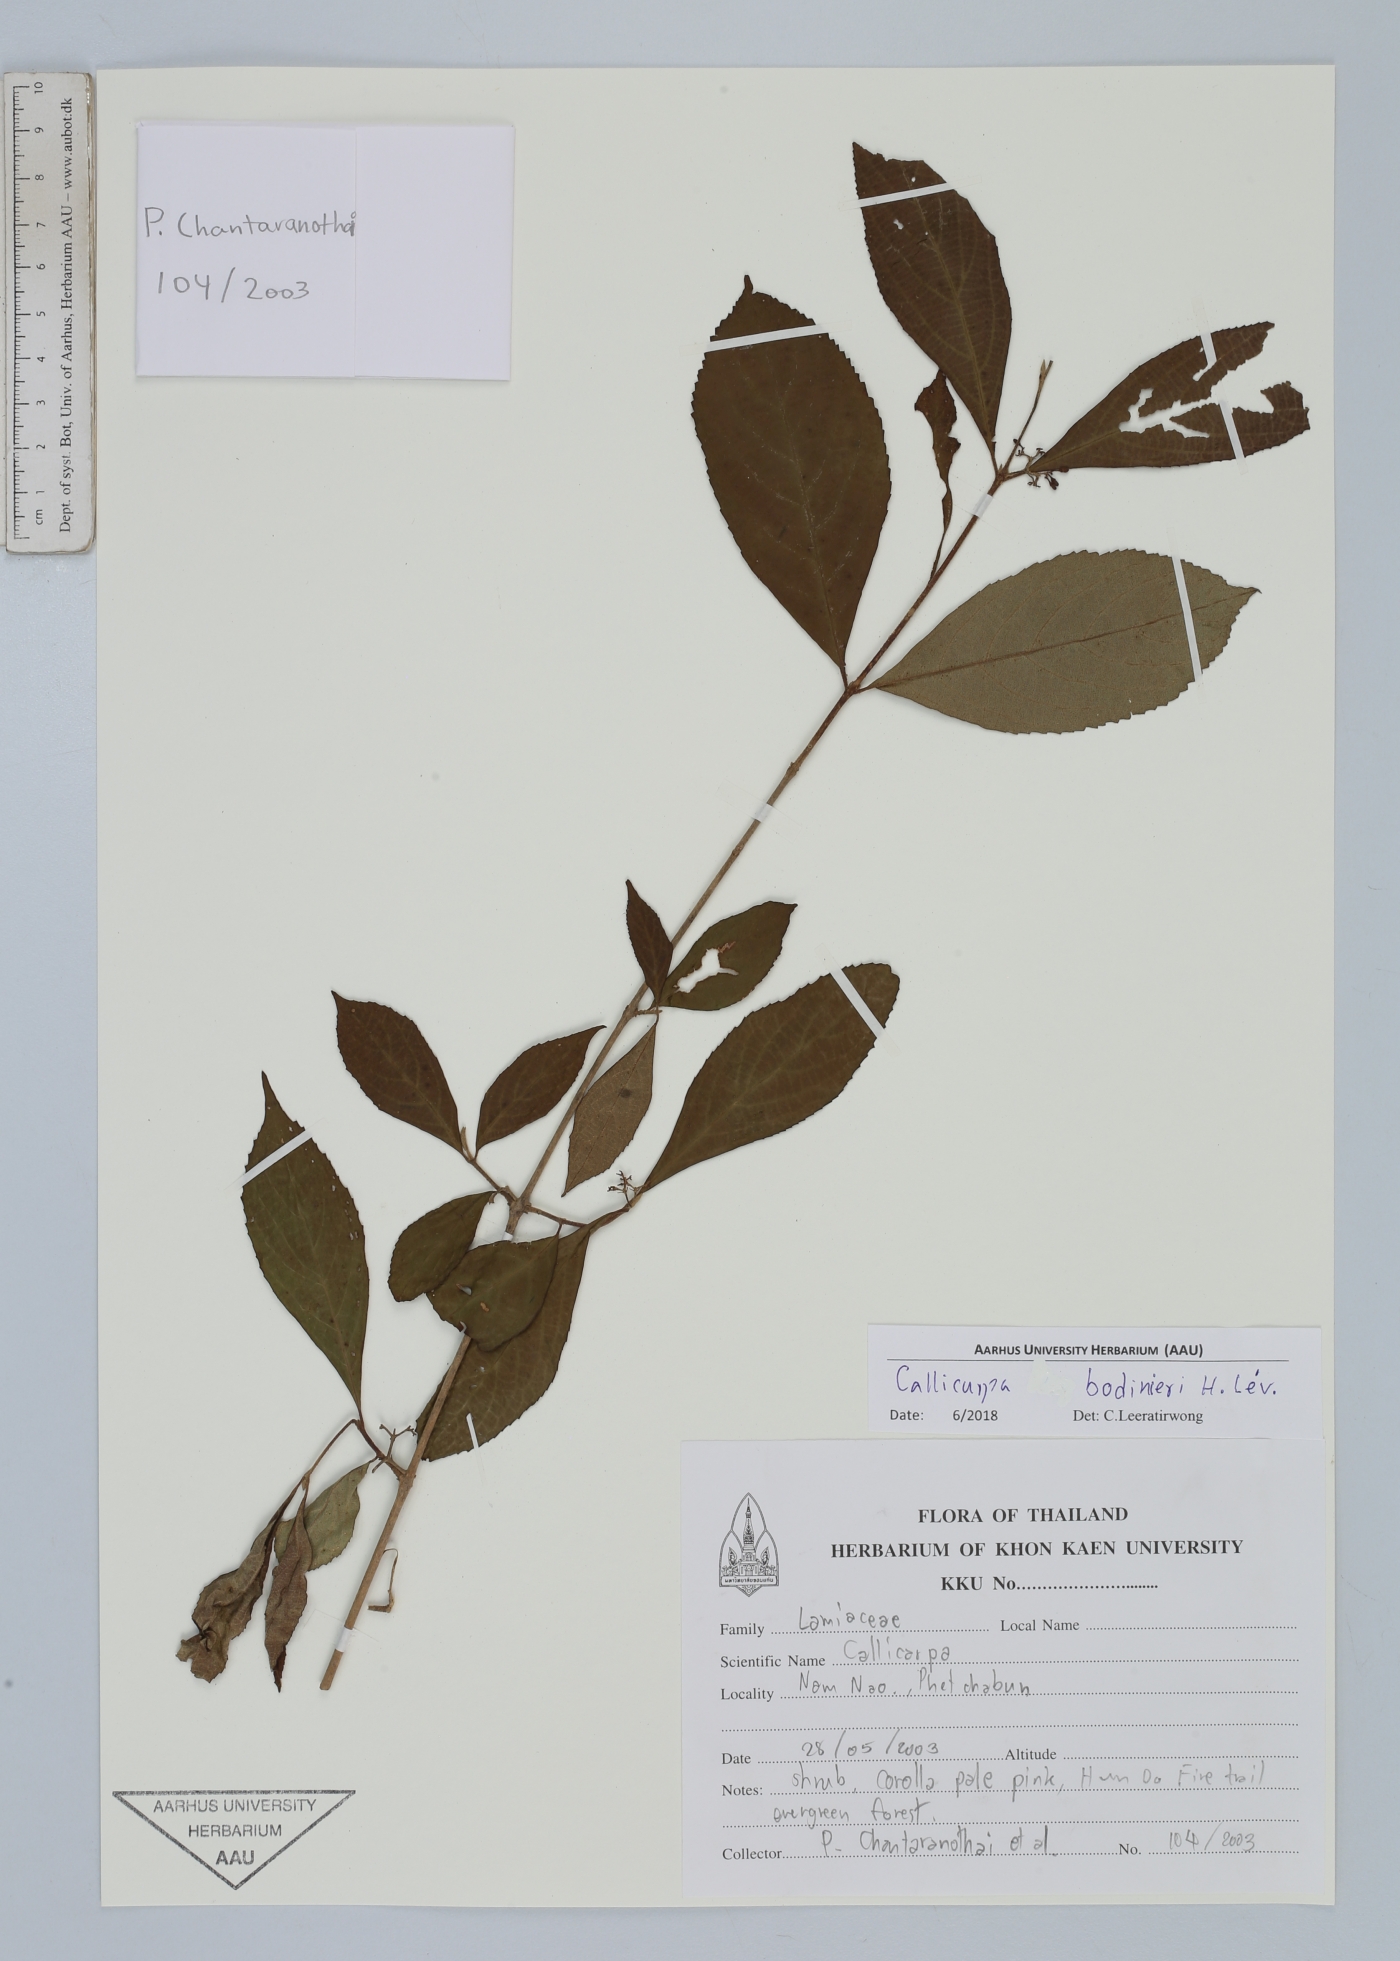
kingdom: Plantae
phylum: Tracheophyta
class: Magnoliopsida
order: Lamiales
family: Lamiaceae
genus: Callicarpa
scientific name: Callicarpa bodinieri
